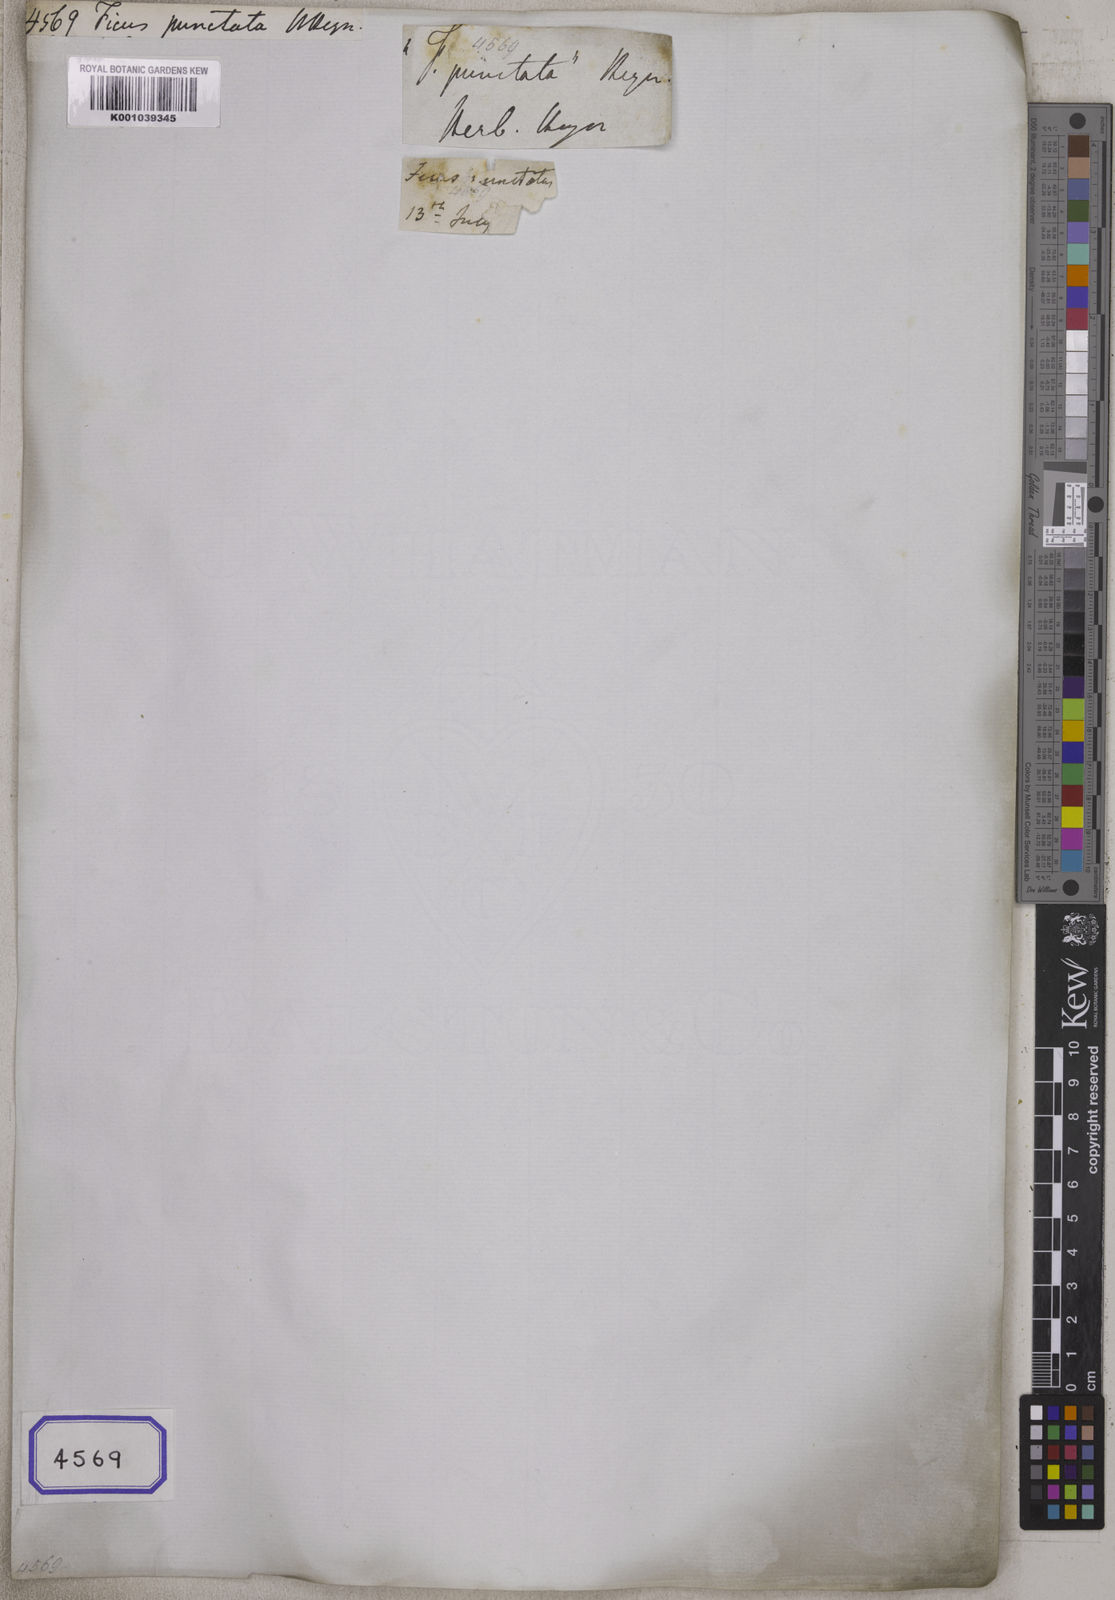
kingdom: Plantae
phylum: Tracheophyta
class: Magnoliopsida
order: Rosales
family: Moraceae
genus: Ficus
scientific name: Ficus
